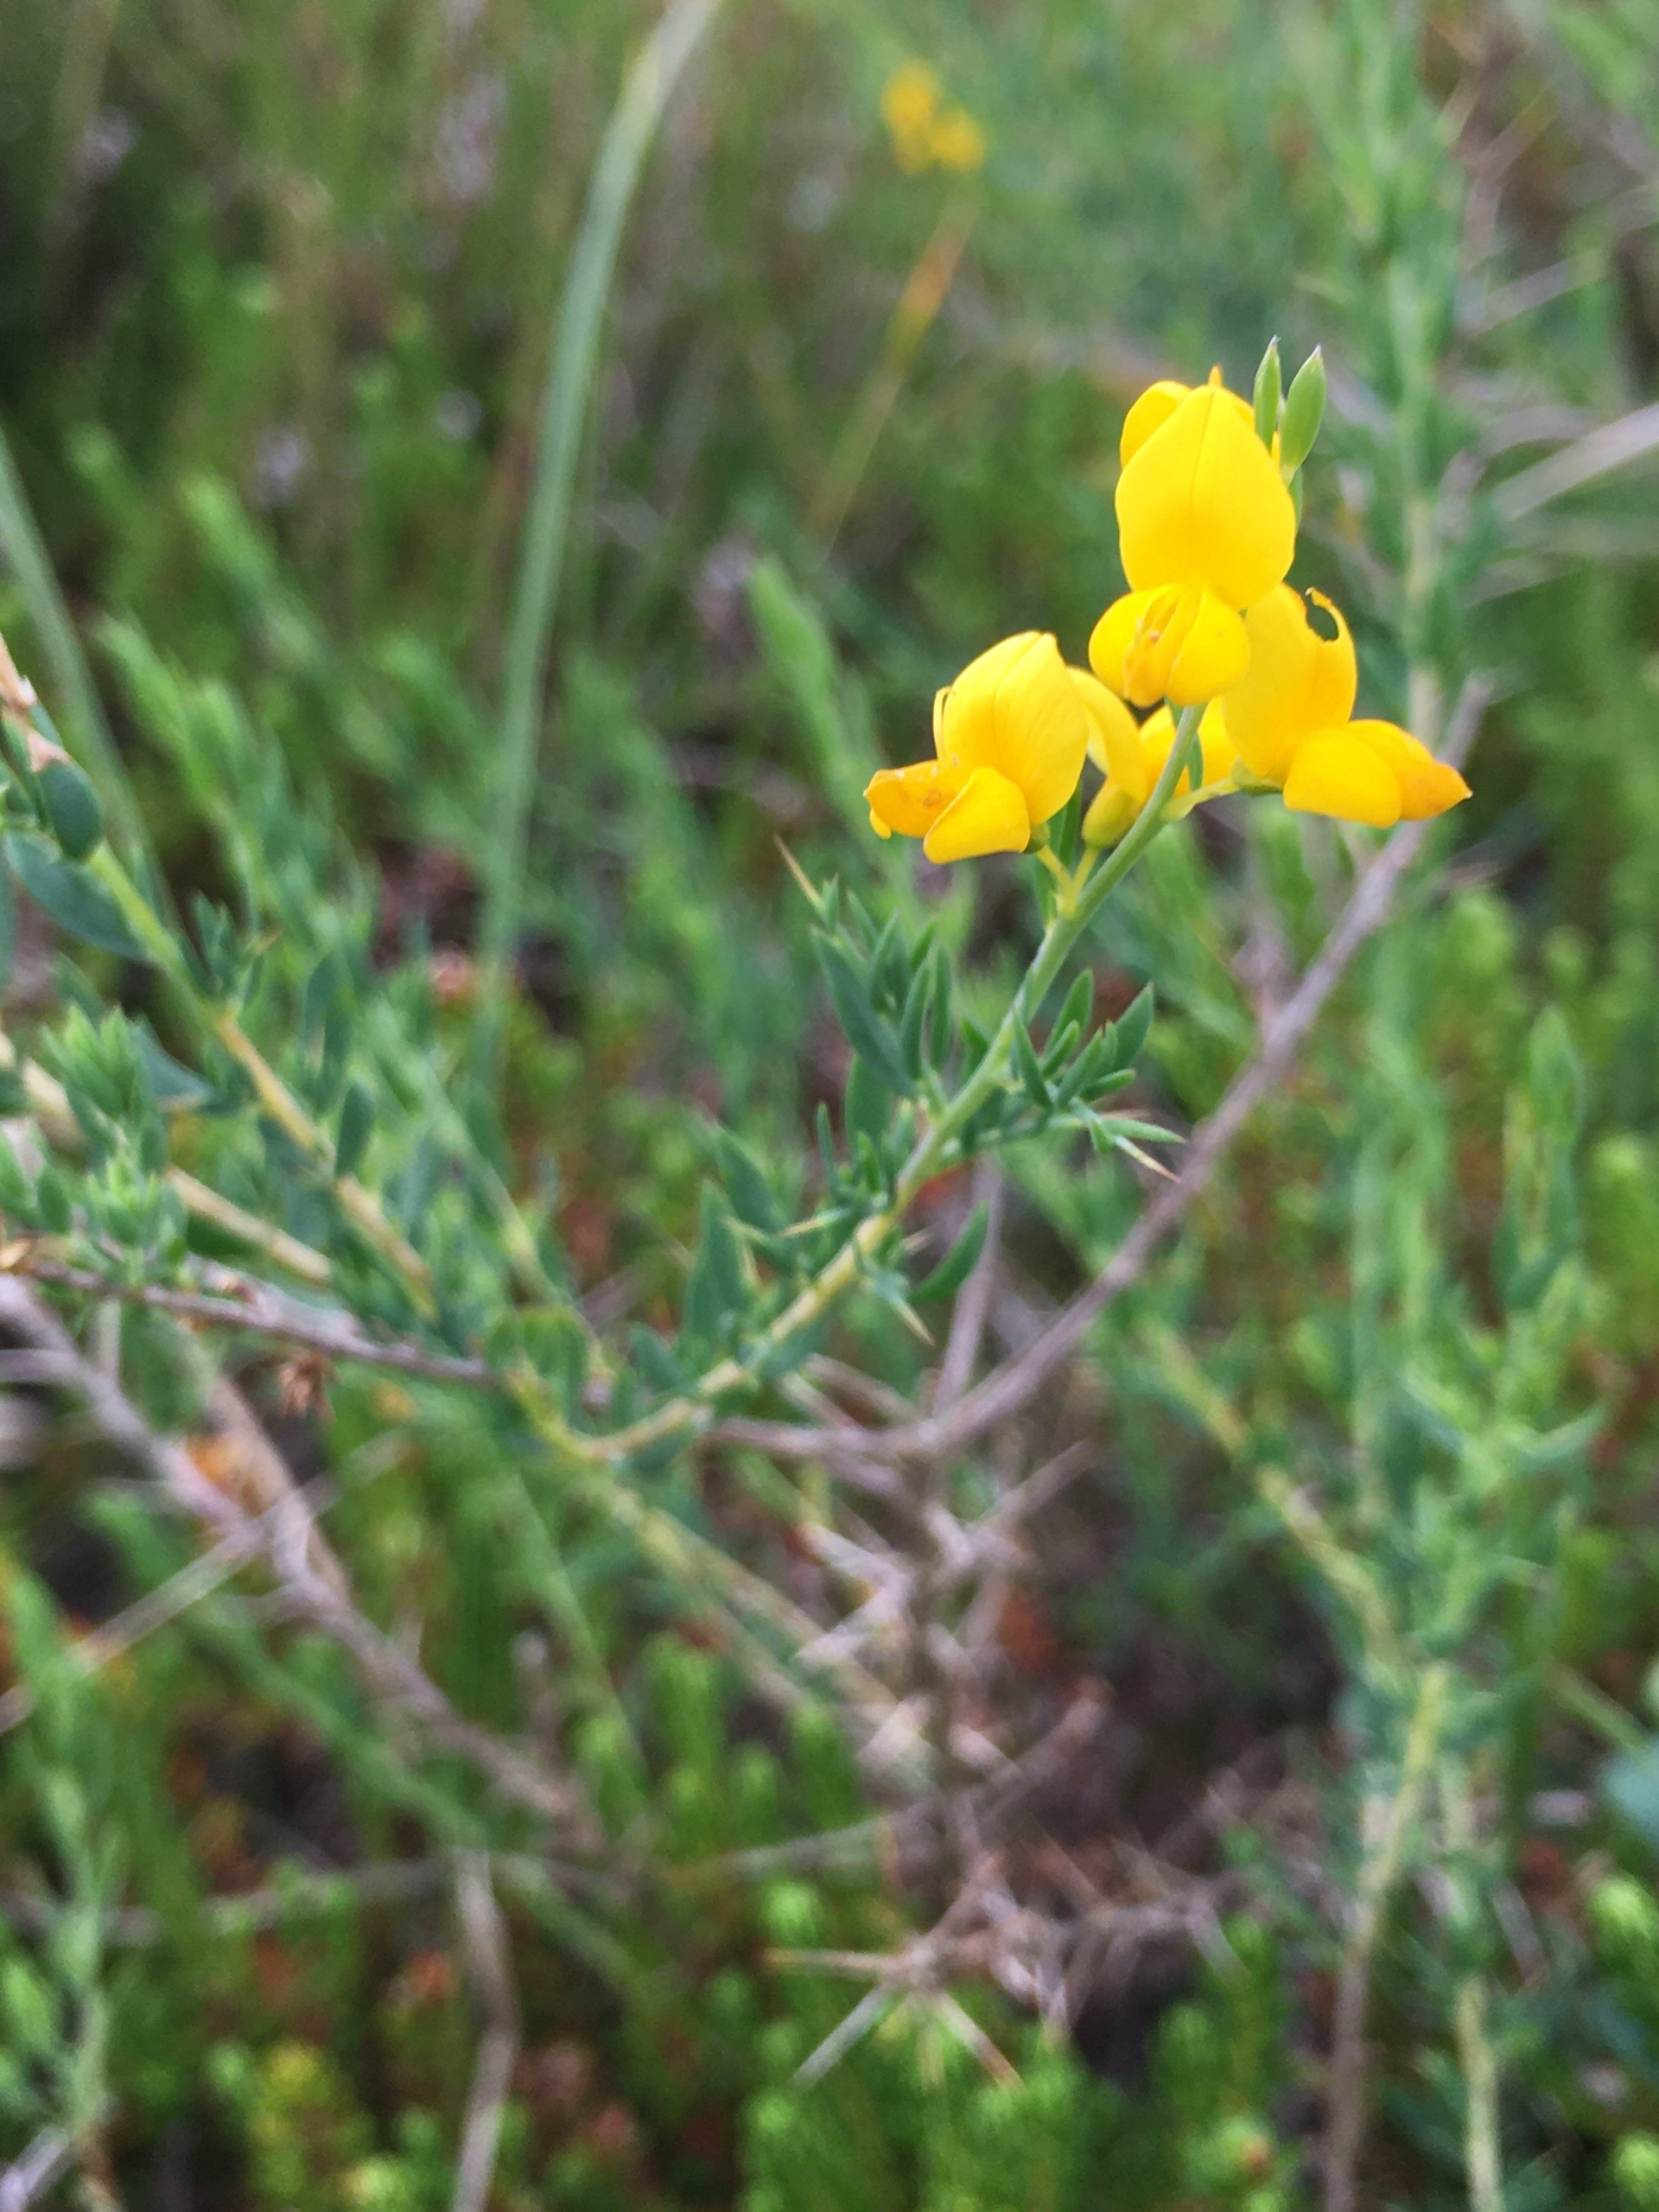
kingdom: Plantae
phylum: Tracheophyta
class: Magnoliopsida
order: Fabales
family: Fabaceae
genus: Genista
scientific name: Genista anglica
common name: Engelsk visse
